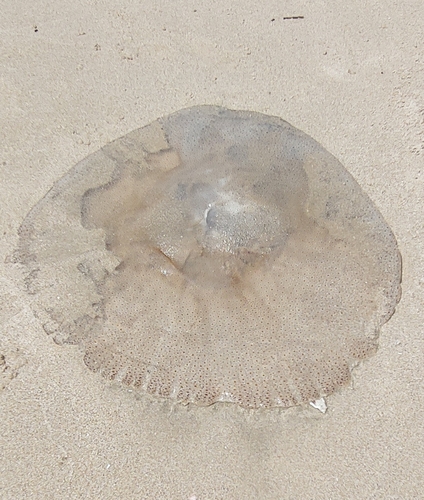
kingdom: Animalia
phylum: Cnidaria
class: Scyphozoa
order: Rhizostomeae
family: Rhizostomatidae
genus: Rhopilema
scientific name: Rhopilema hispidum
